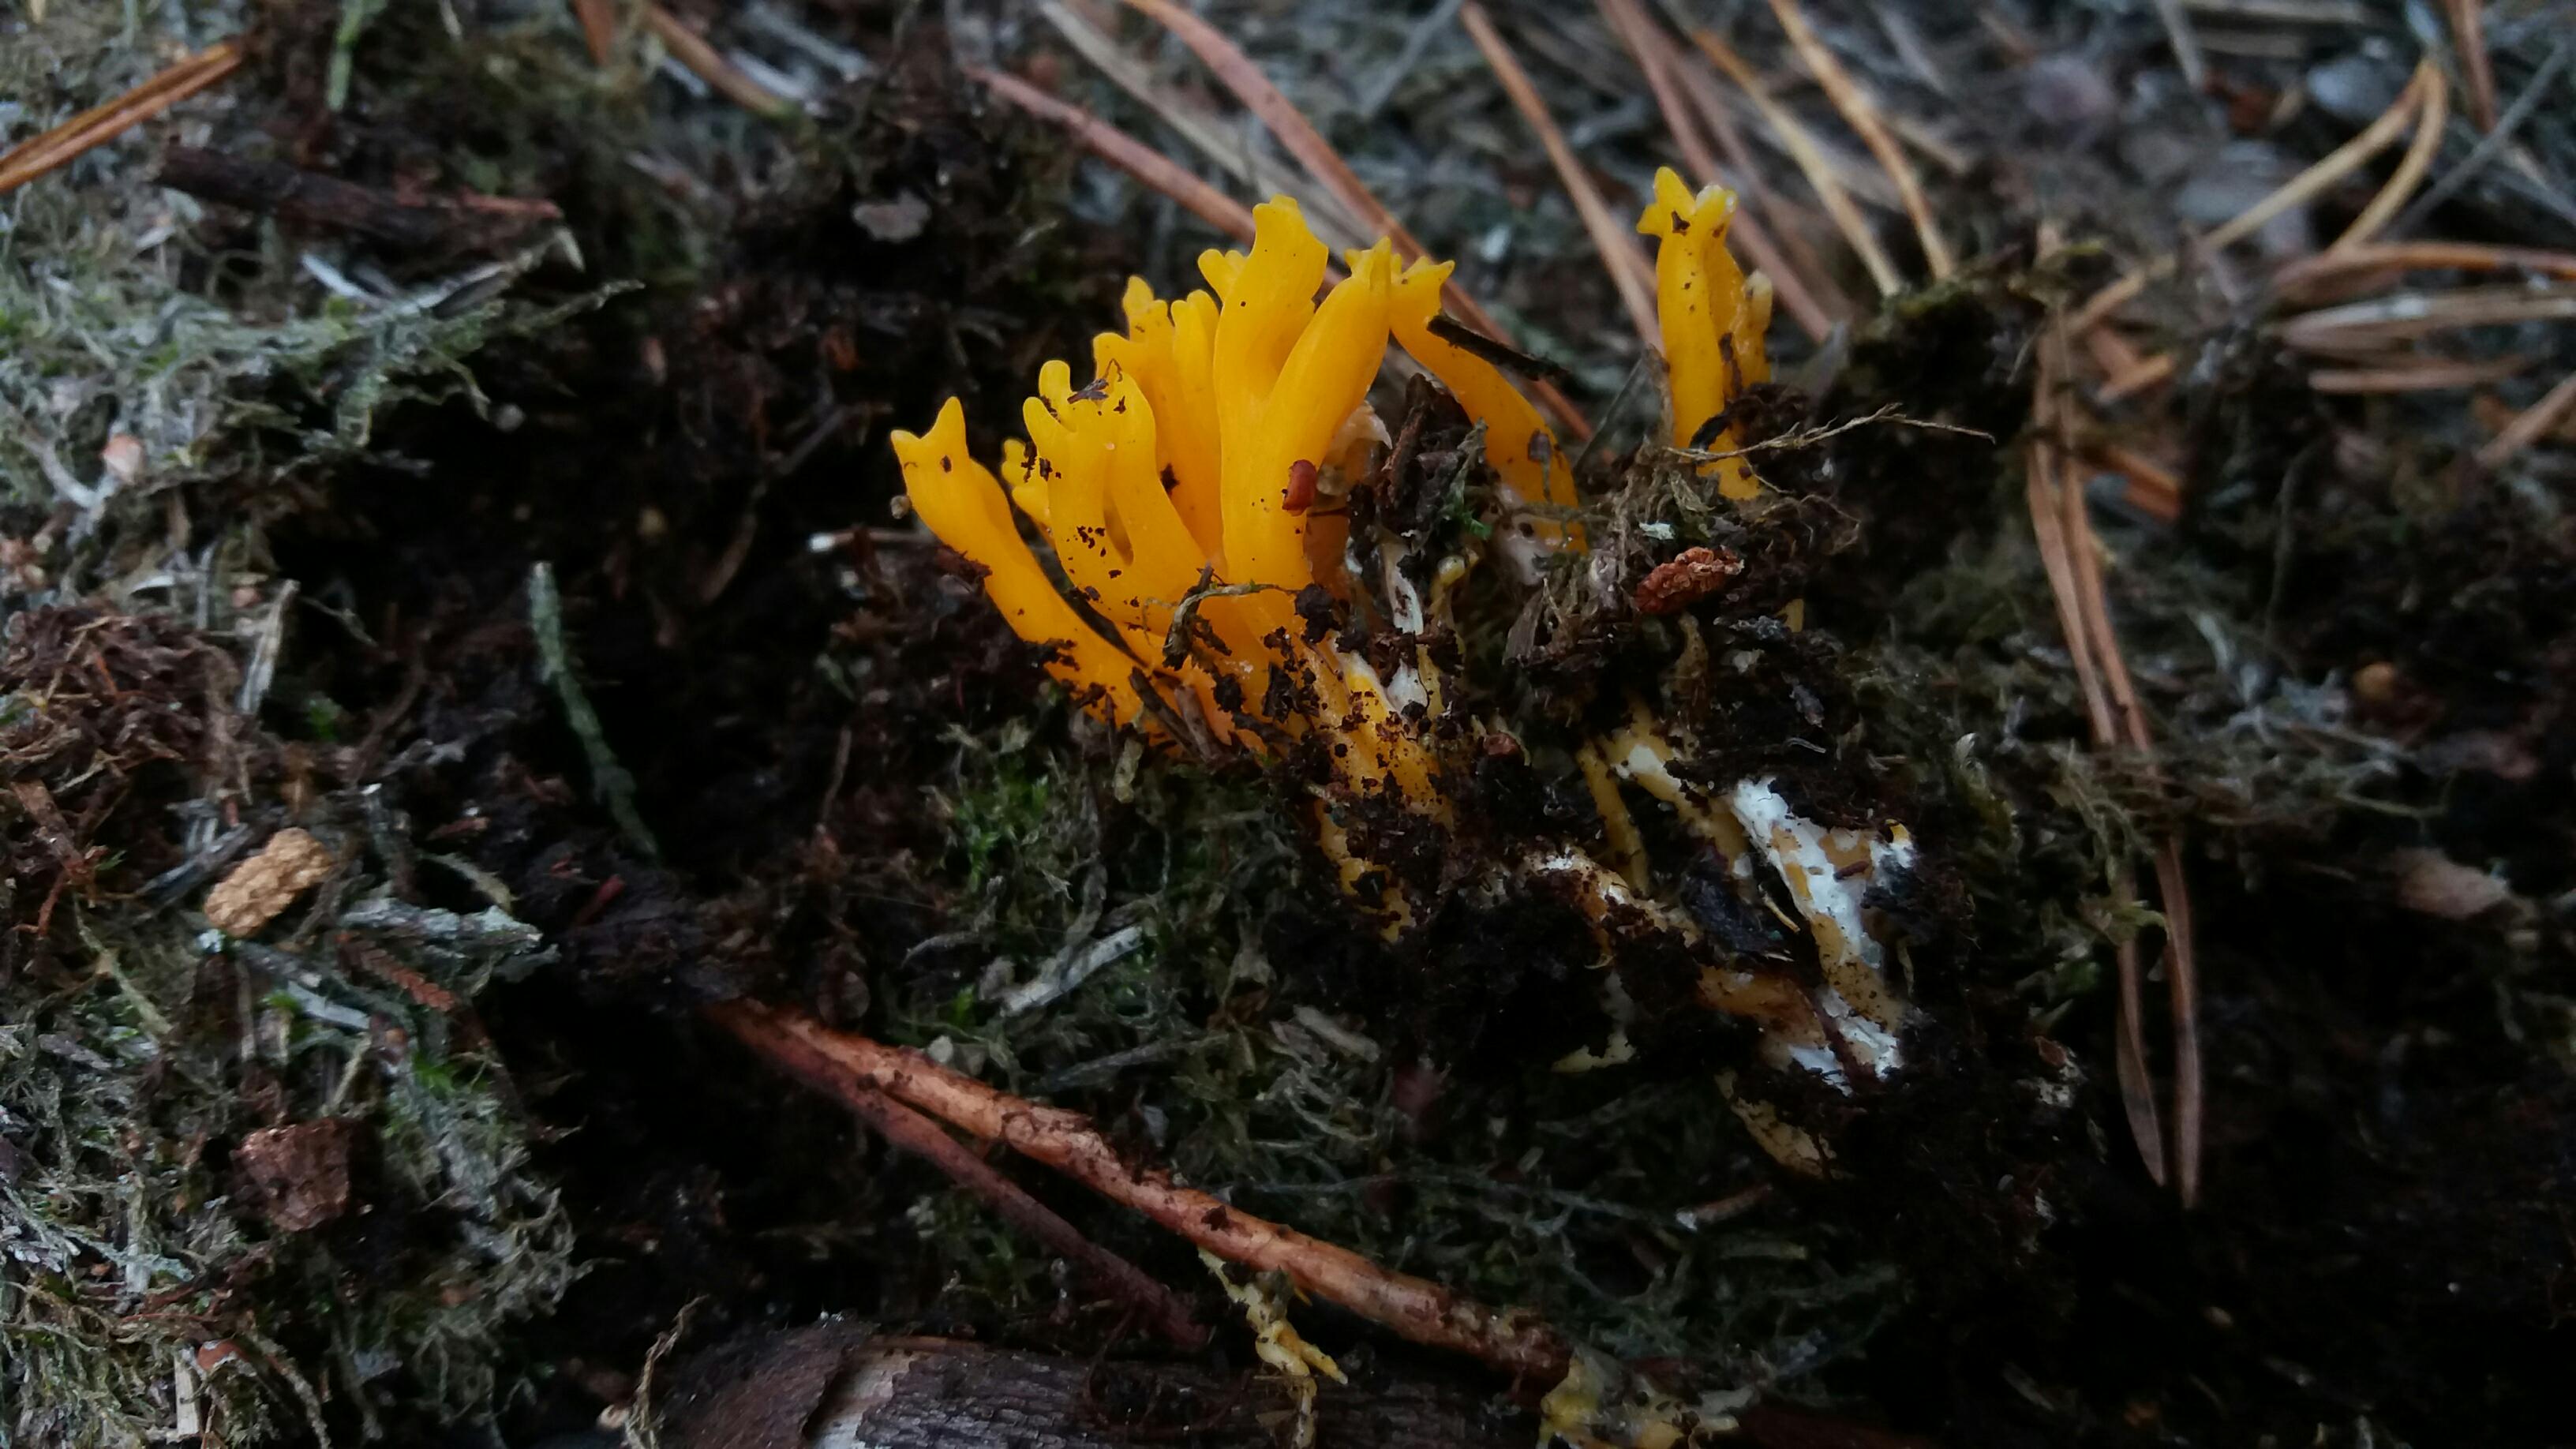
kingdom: Fungi
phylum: Basidiomycota
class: Dacrymycetes
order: Dacrymycetales
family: Dacrymycetaceae
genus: Calocera
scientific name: Calocera viscosa
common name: almindelig guldgaffel
